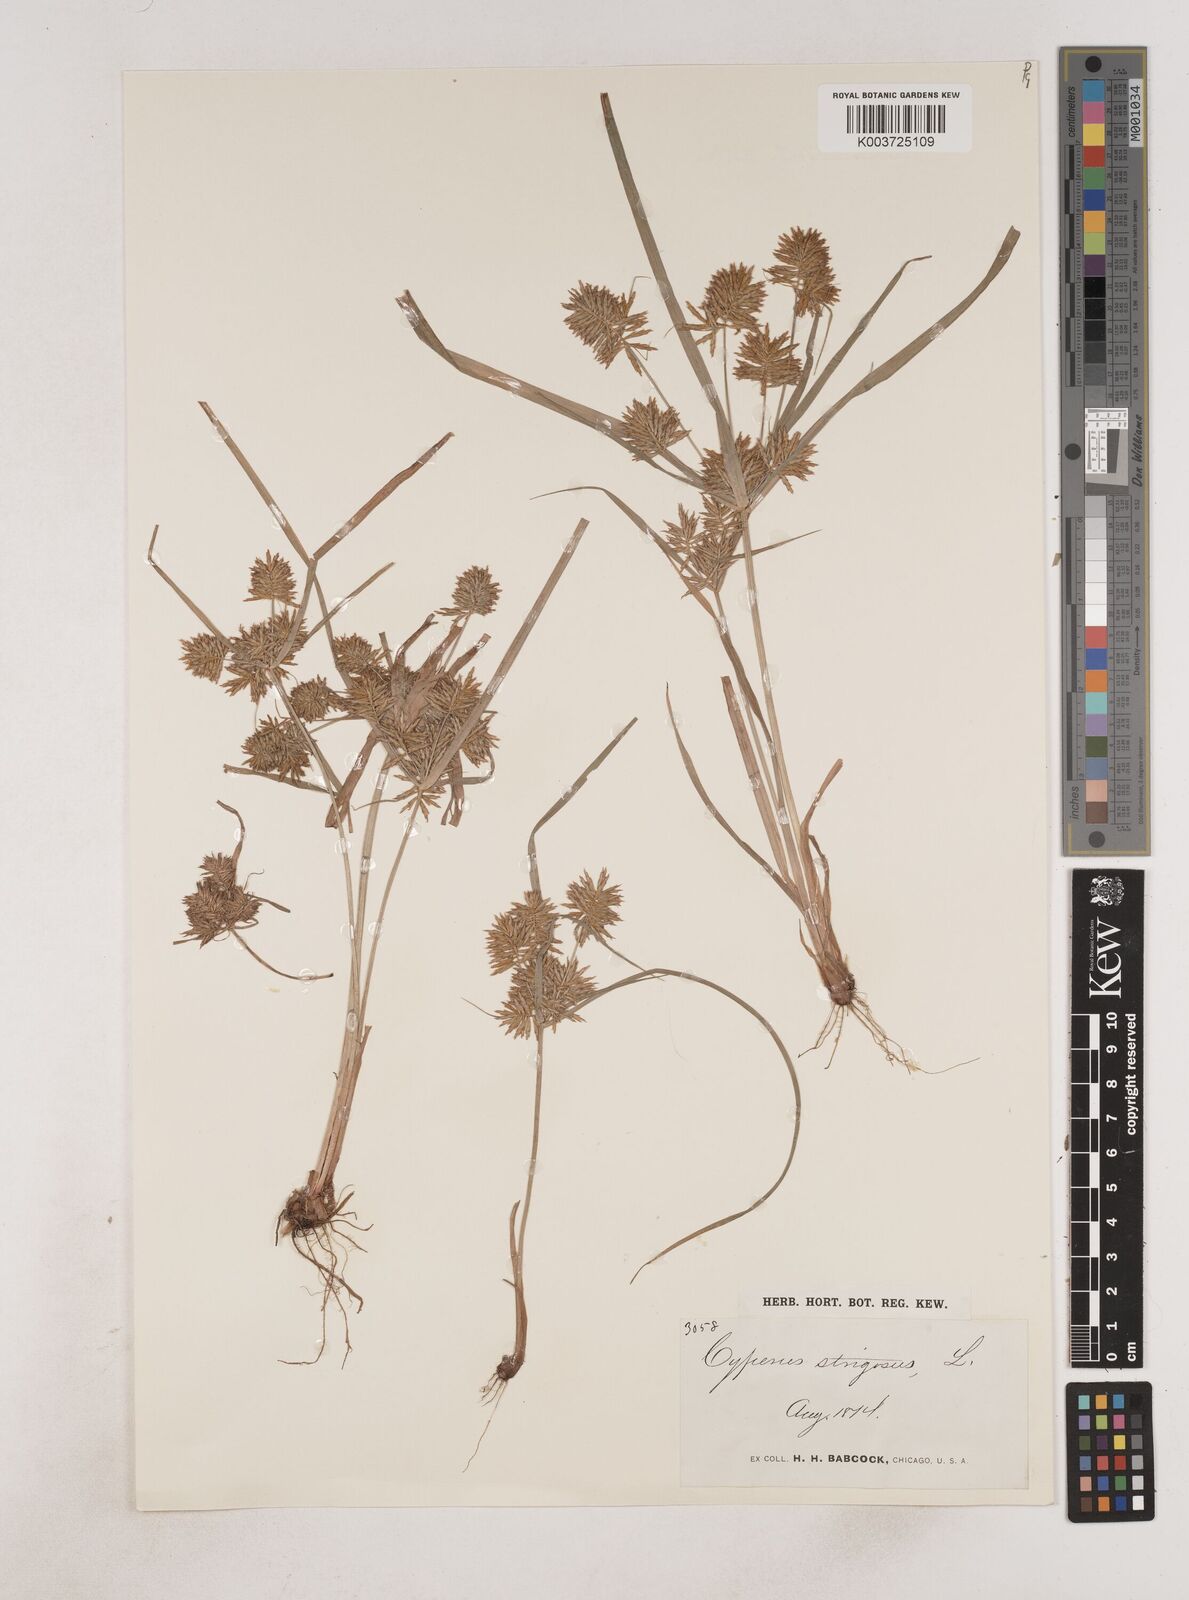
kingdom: Plantae
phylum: Tracheophyta
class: Liliopsida
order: Poales
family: Cyperaceae
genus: Cyperus
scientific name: Cyperus strigosus
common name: False nutsedge
